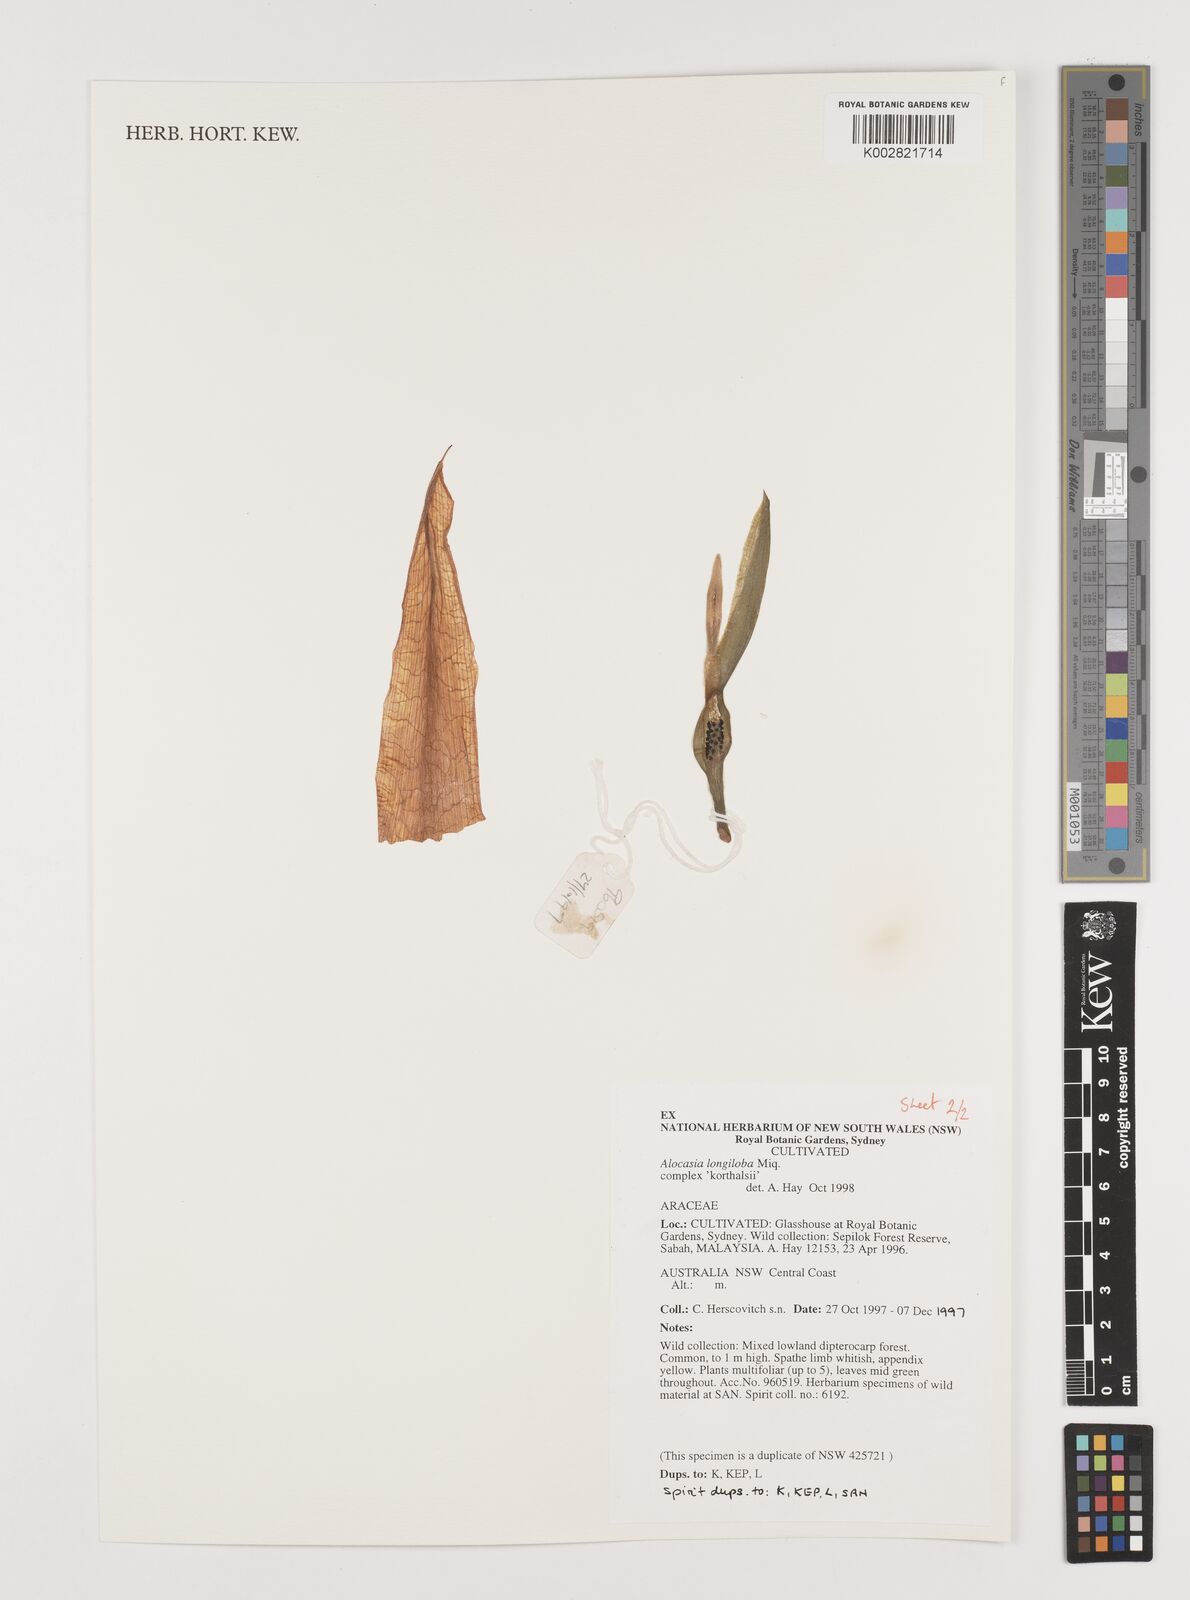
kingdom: Plantae
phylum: Tracheophyta
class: Liliopsida
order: Alismatales
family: Araceae
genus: Alocasia
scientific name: Alocasia longiloba
